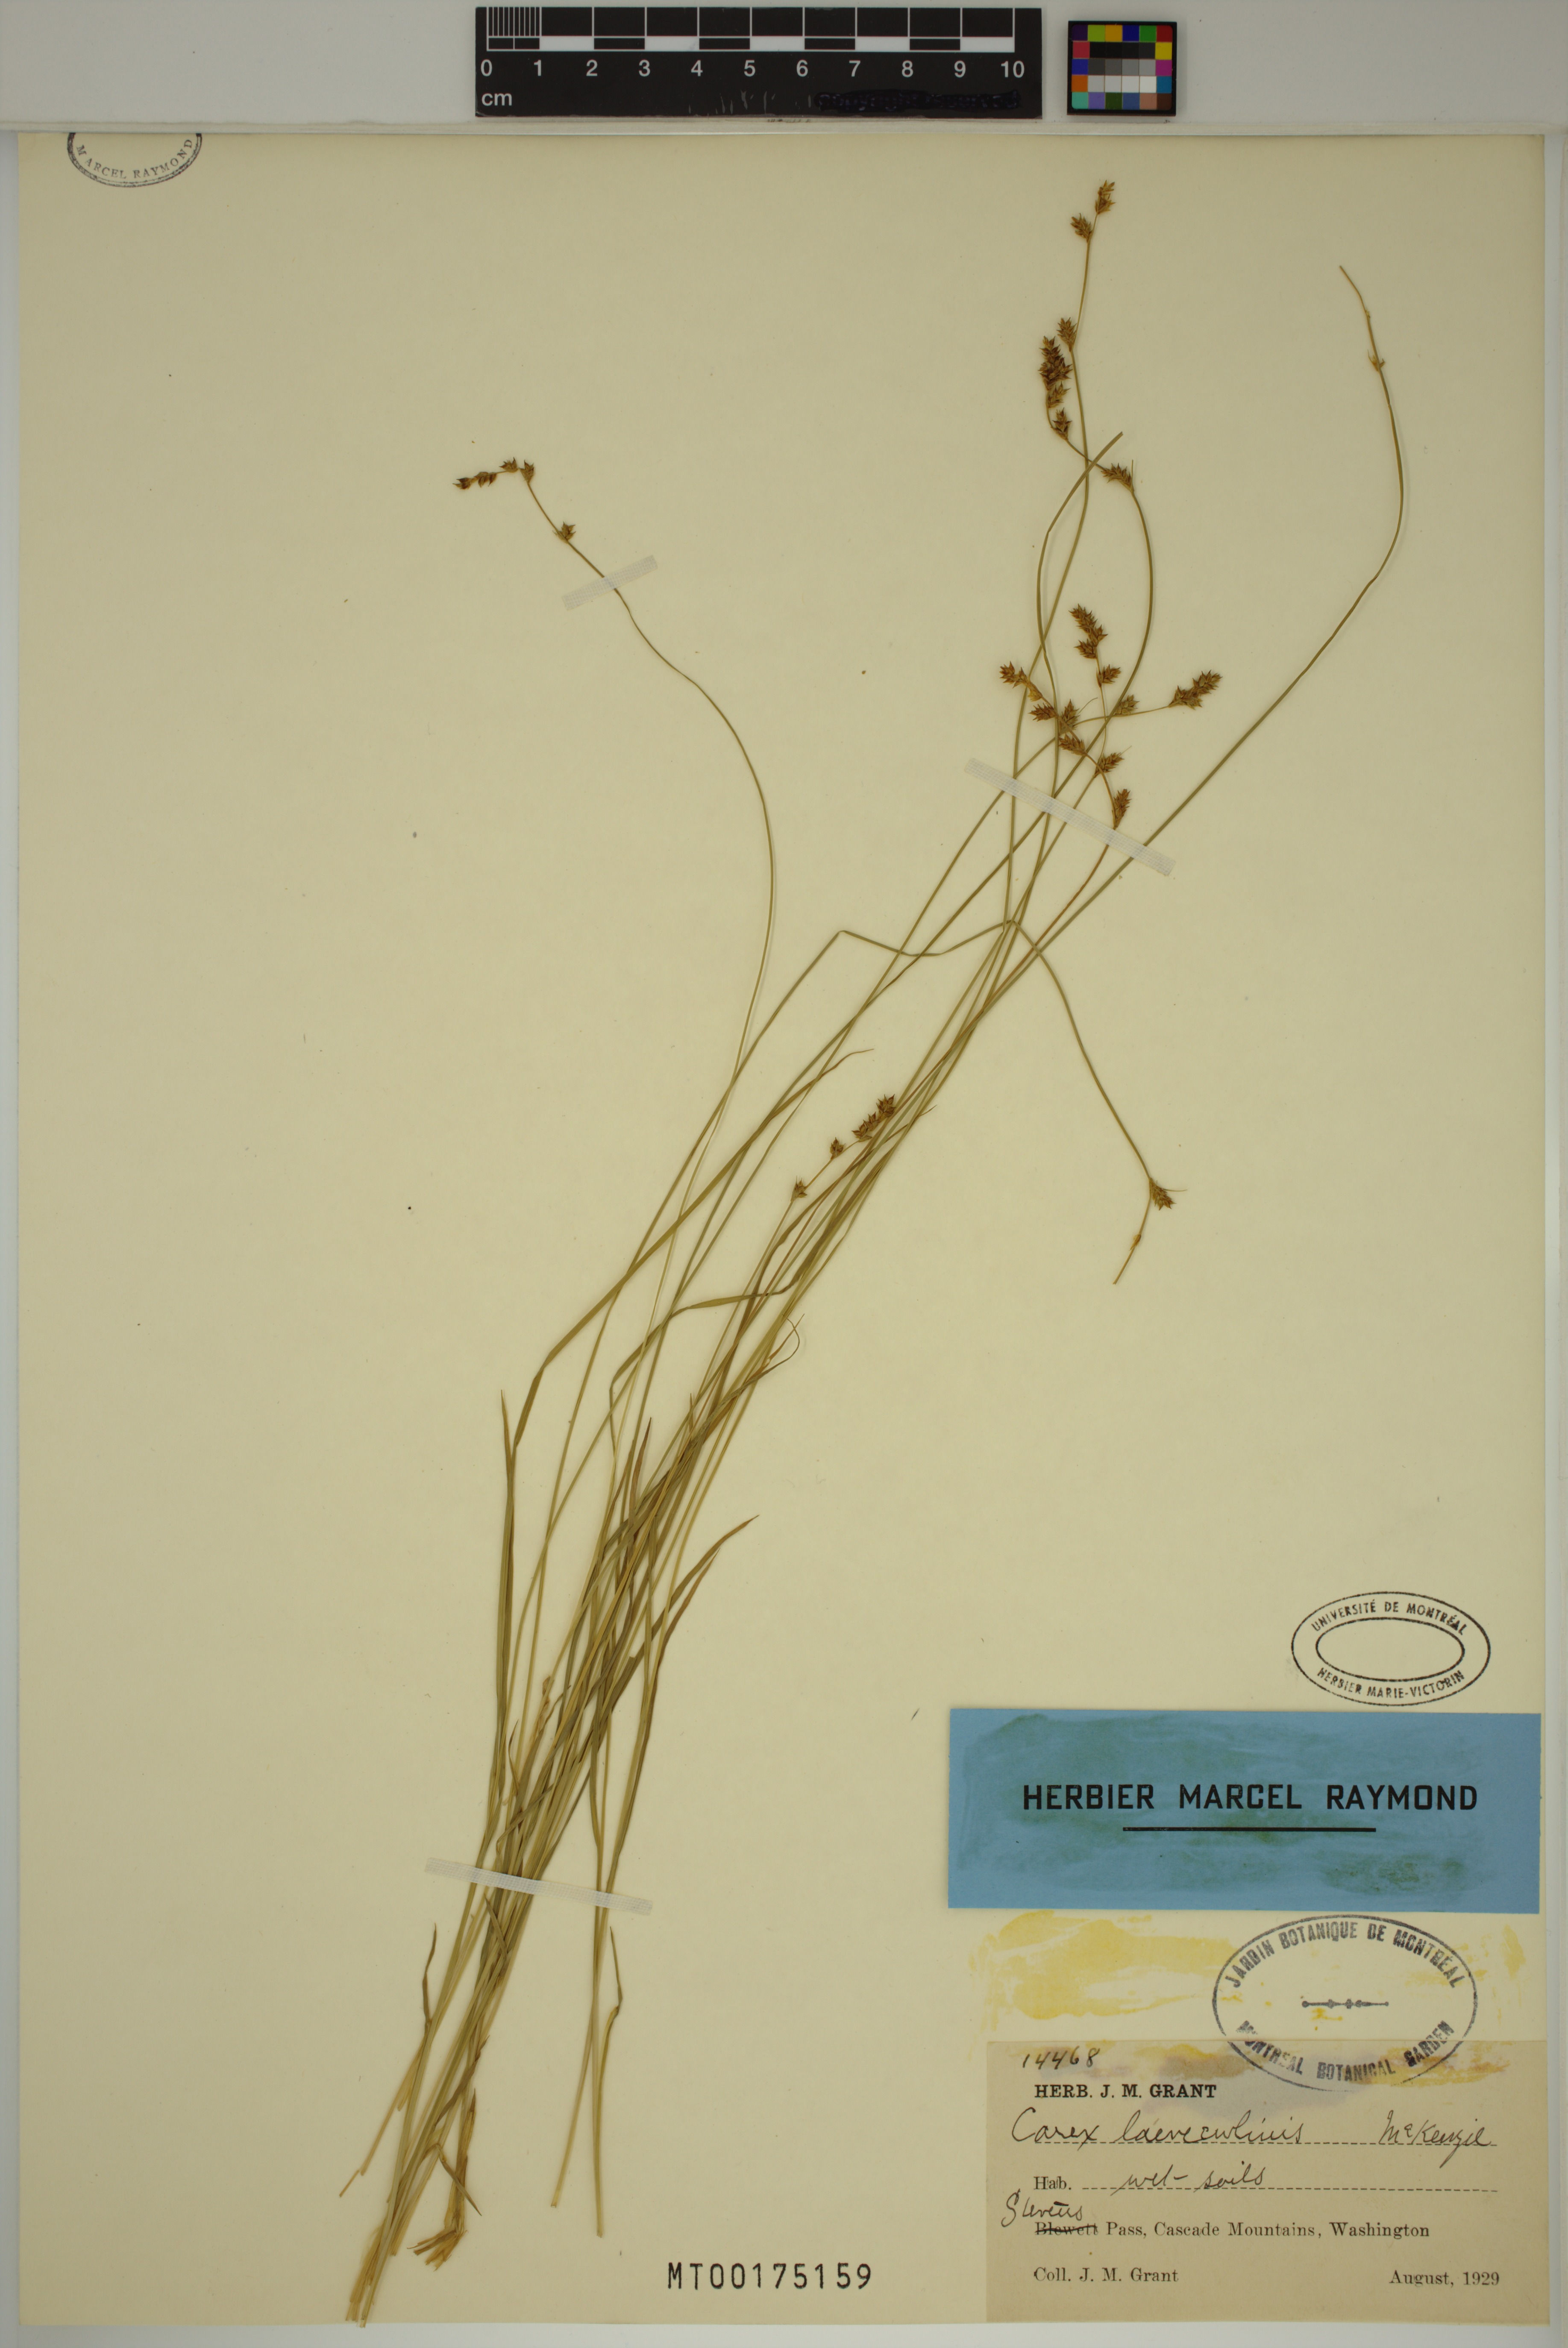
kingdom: Plantae
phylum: Tracheophyta
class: Liliopsida
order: Poales
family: Cyperaceae
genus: Carex
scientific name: Carex laeviculmis
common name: Smooth sedge
